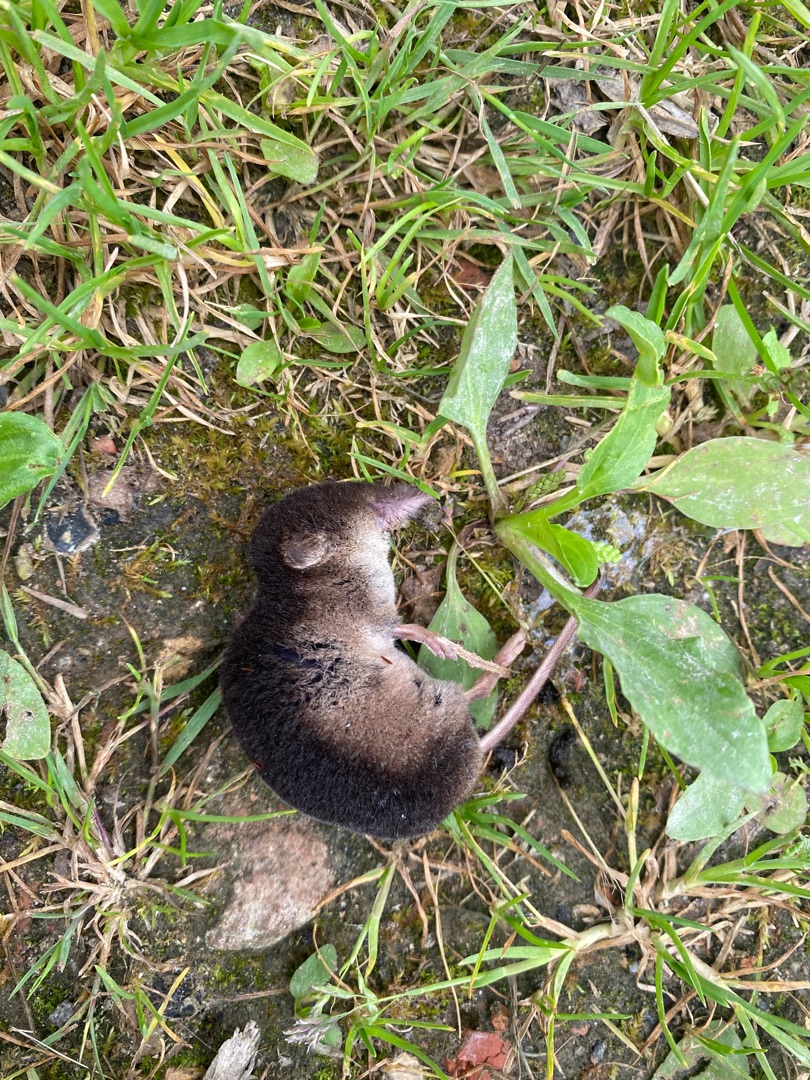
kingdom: Animalia
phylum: Chordata
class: Mammalia
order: Soricomorpha
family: Soricidae
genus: Sorex
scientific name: Sorex araneus
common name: Almindelig spidsmus
